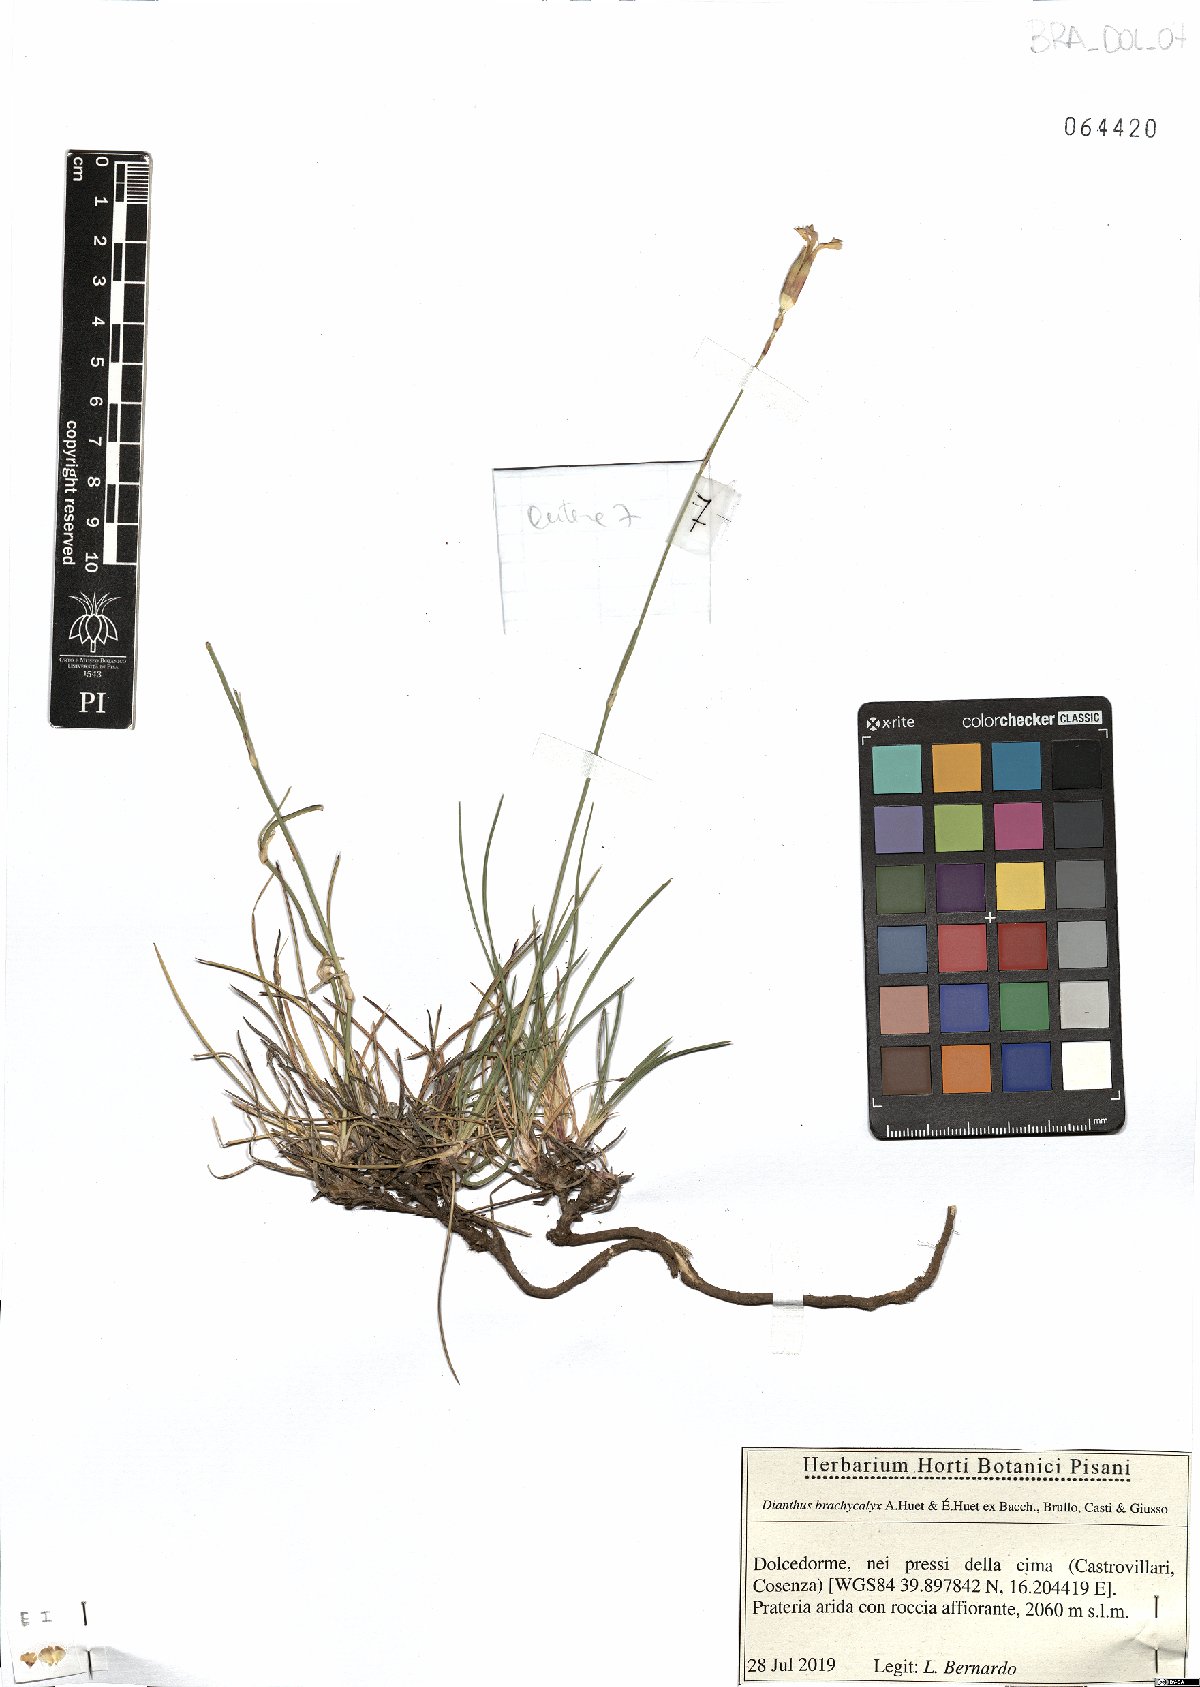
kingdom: Plantae
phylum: Tracheophyta
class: Magnoliopsida
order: Caryophyllales
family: Caryophyllaceae
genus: Dianthus
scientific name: Dianthus brachycalyx
